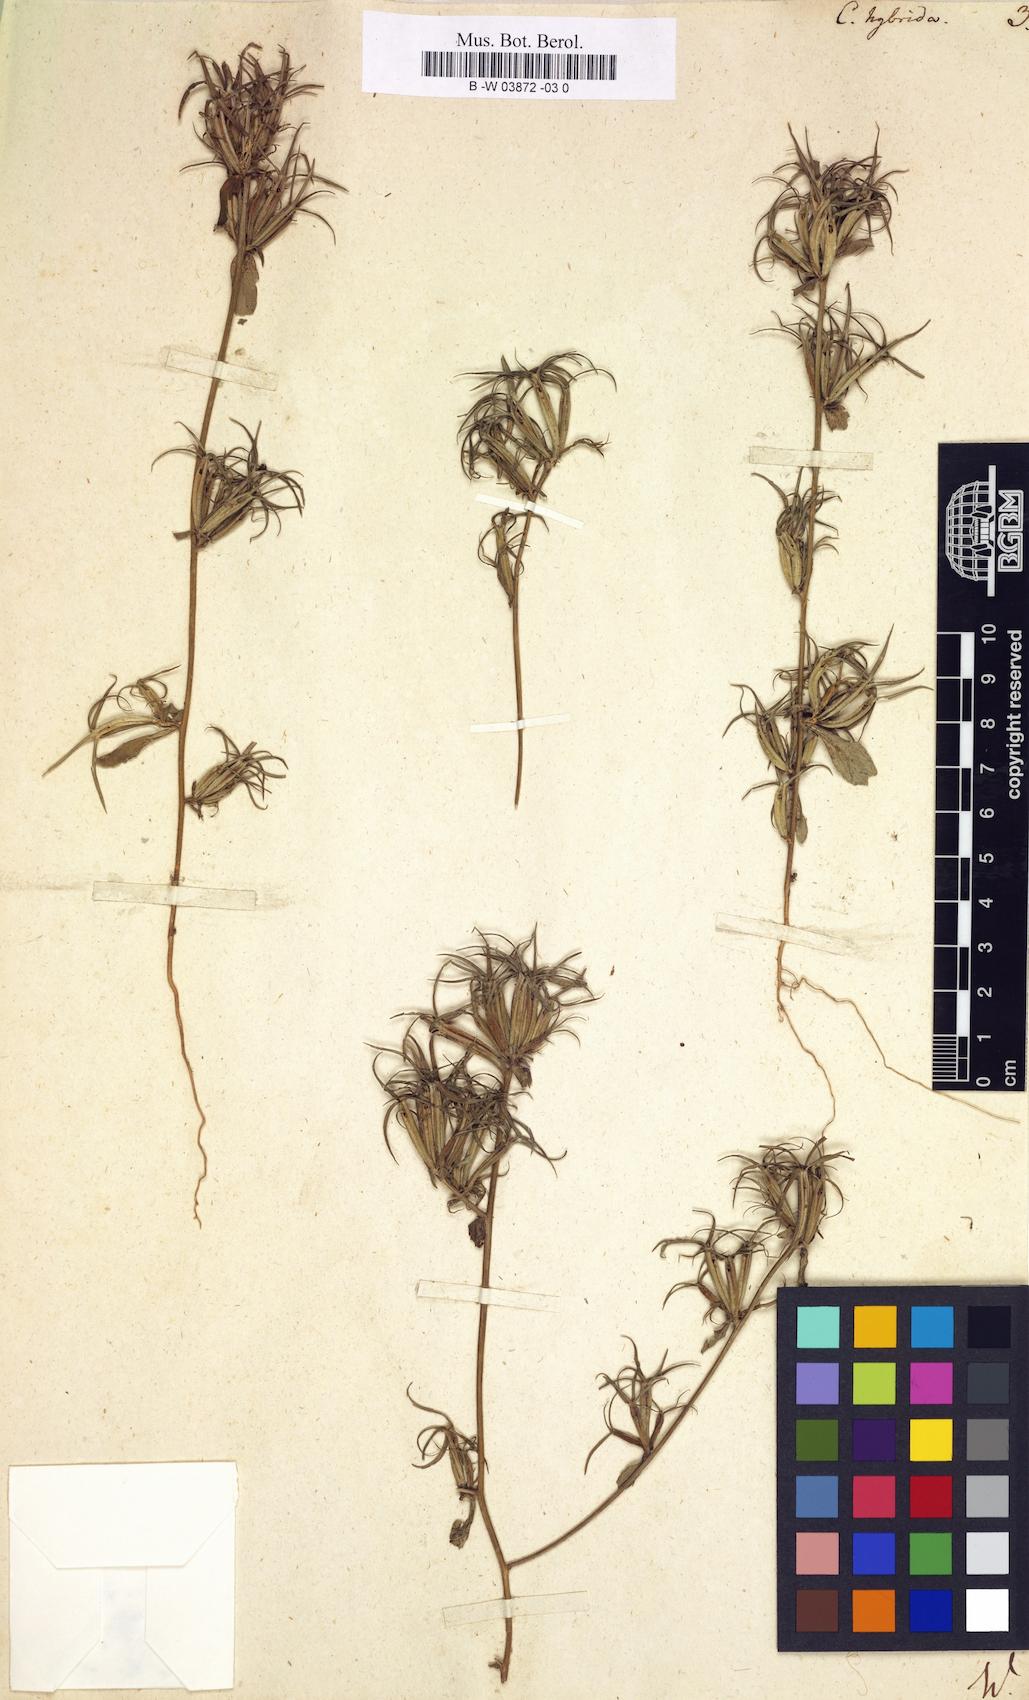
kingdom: Plantae
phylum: Tracheophyta
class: Magnoliopsida
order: Asterales
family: Campanulaceae
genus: Legousia
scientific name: Legousia hybrida
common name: Venus's-looking-glass
